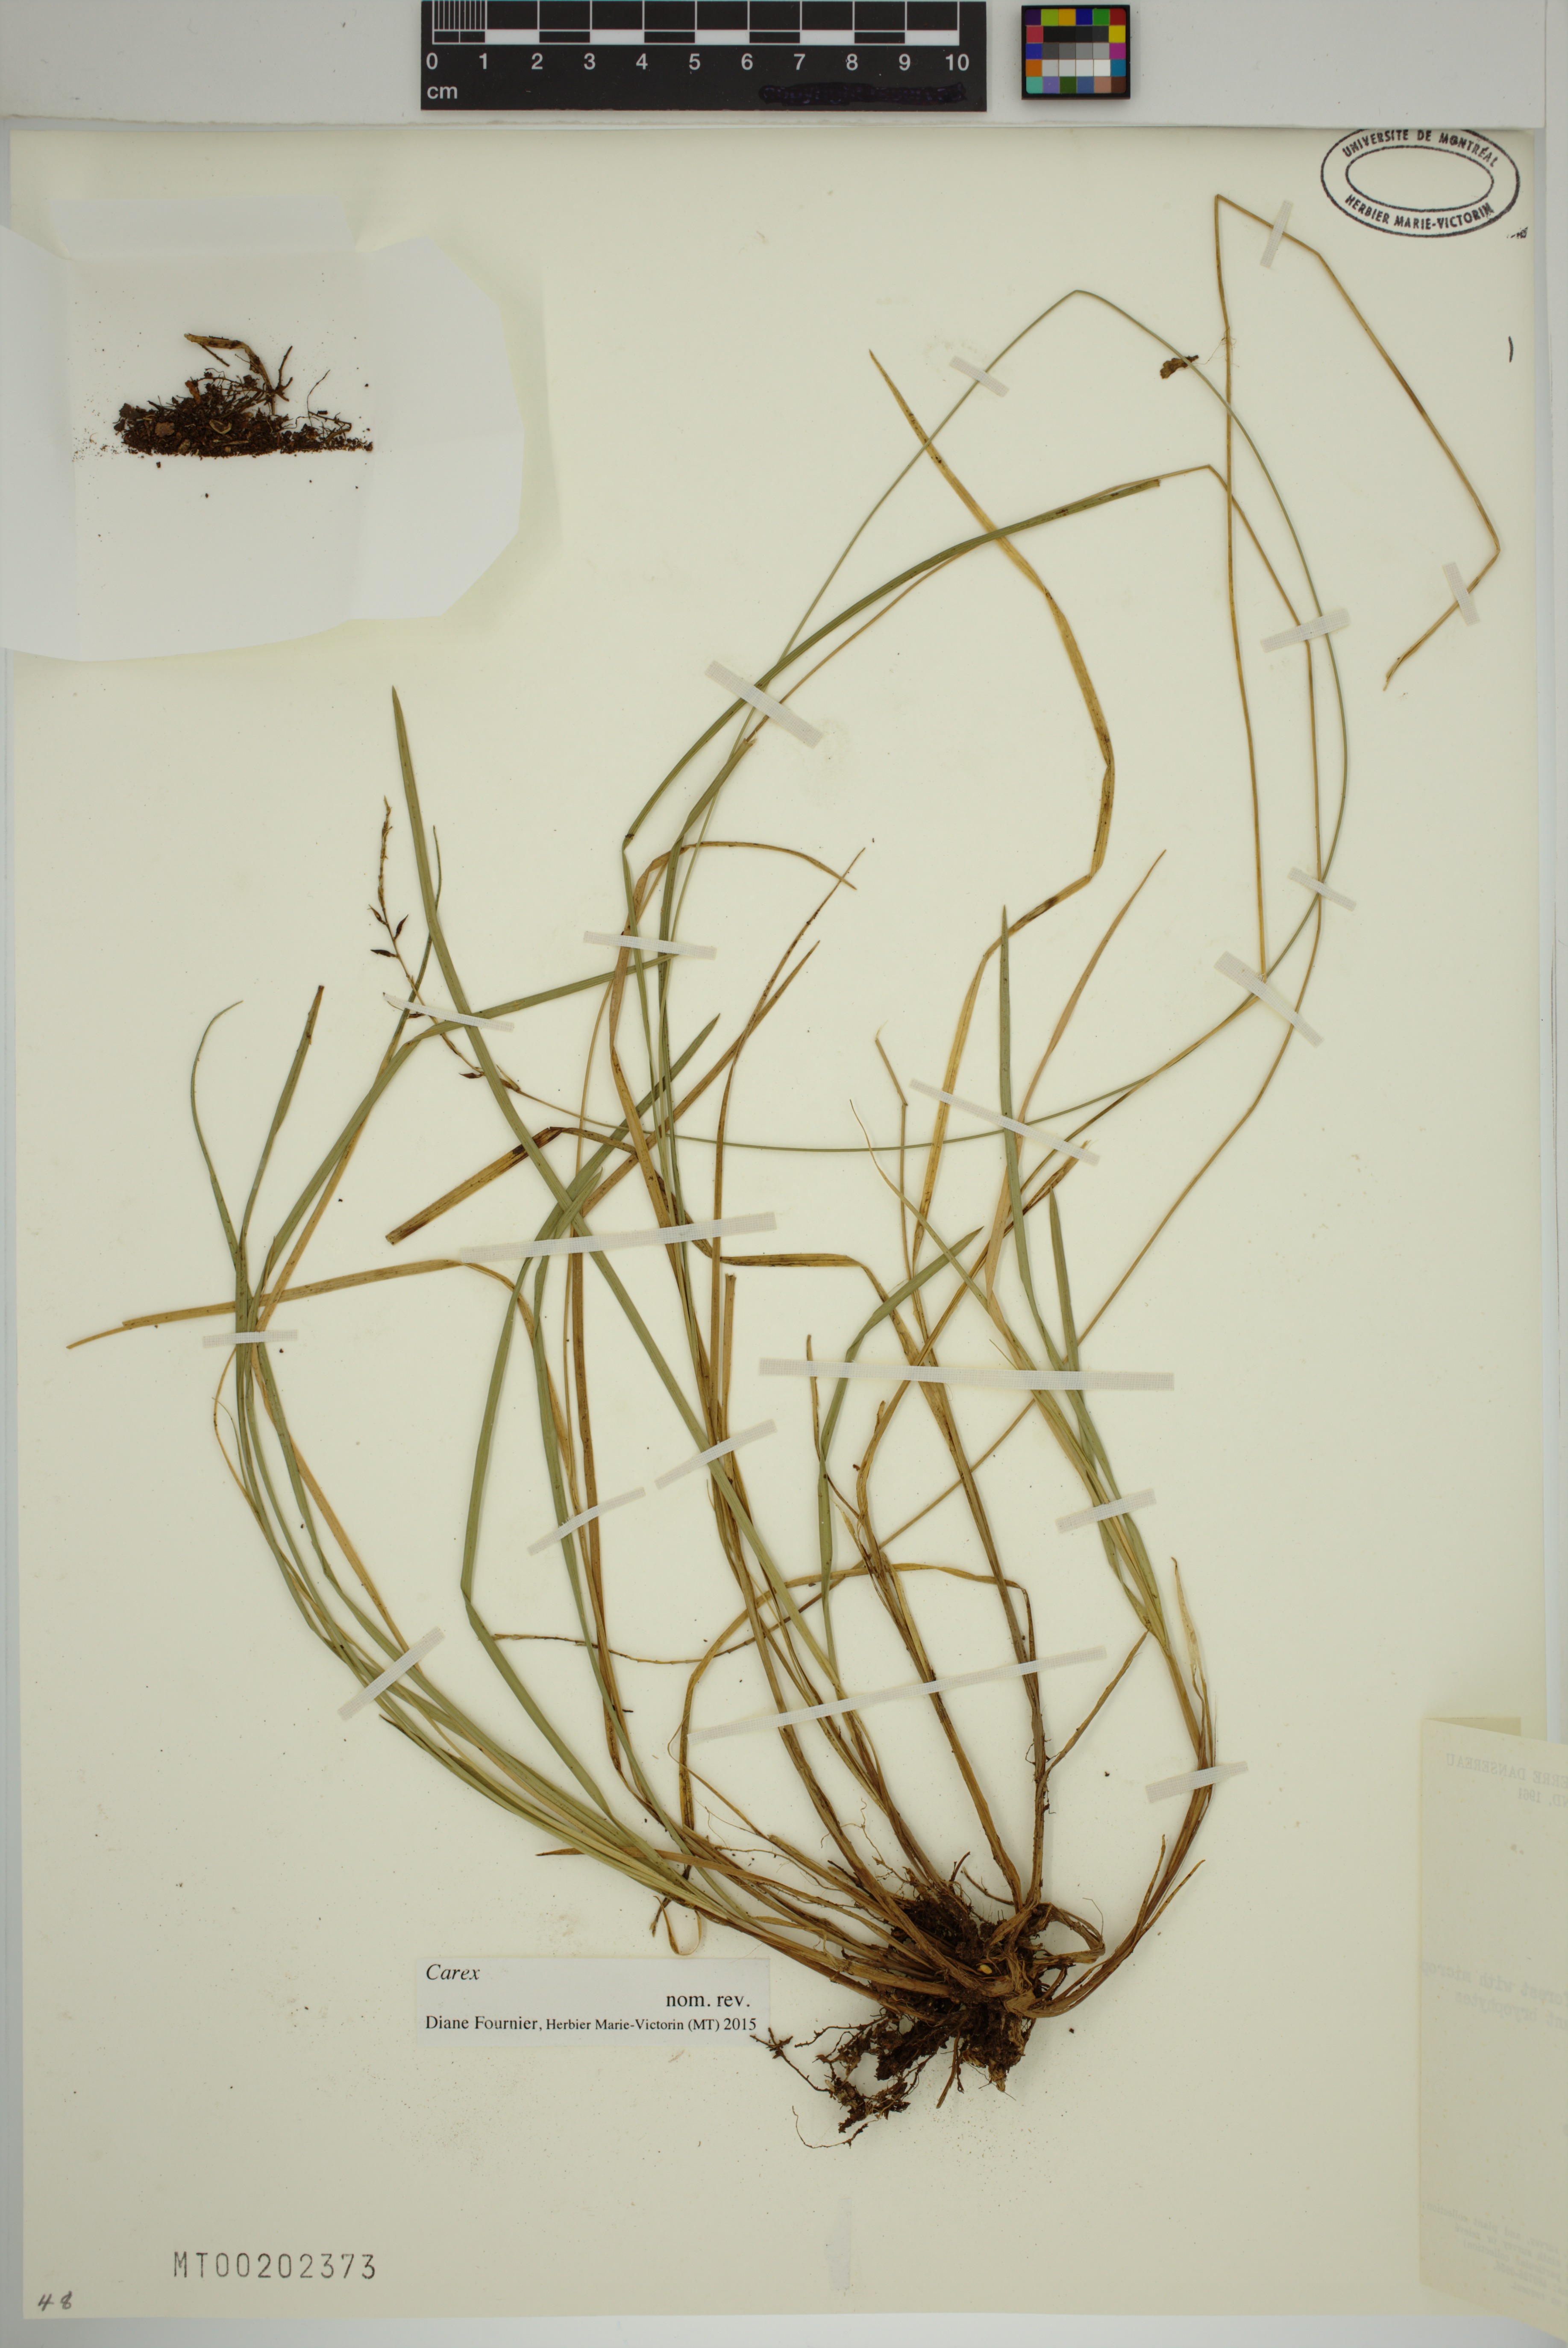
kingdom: Plantae
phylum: Tracheophyta
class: Liliopsida
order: Poales
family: Cyperaceae
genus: Carex
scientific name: Carex
